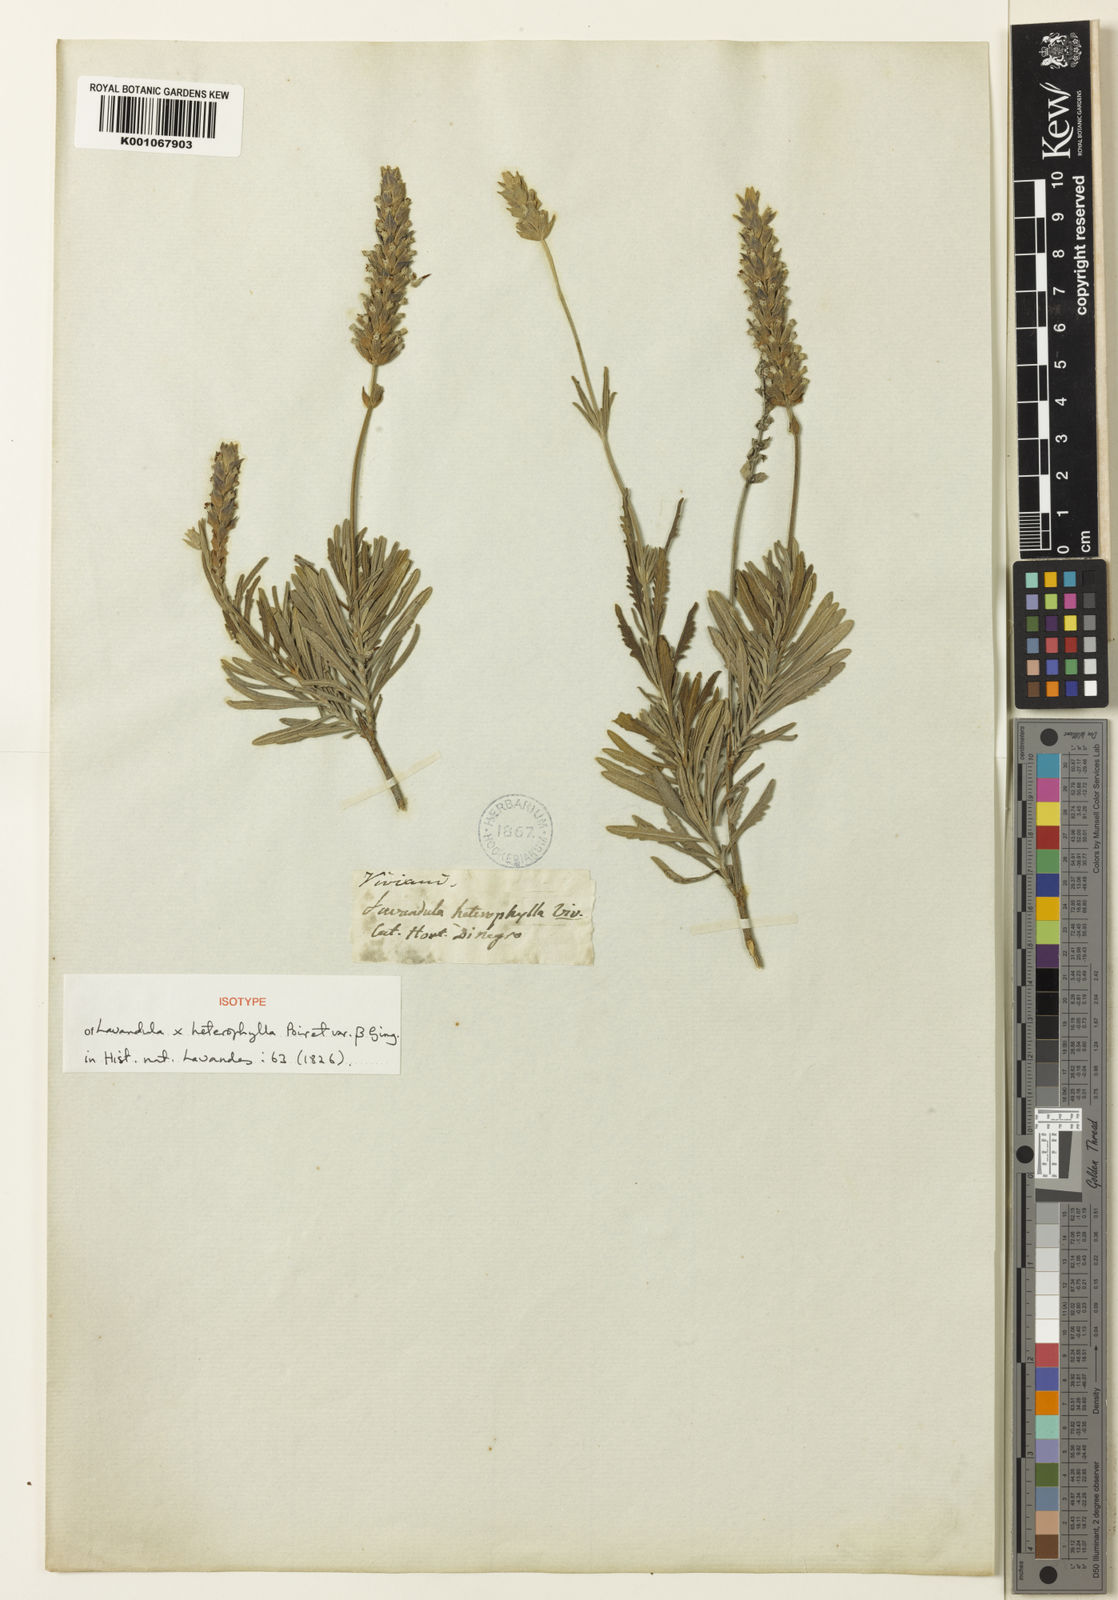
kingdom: Plantae
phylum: Tracheophyta
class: Magnoliopsida
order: Lamiales
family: Lamiaceae
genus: Lavandula
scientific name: Lavandula
